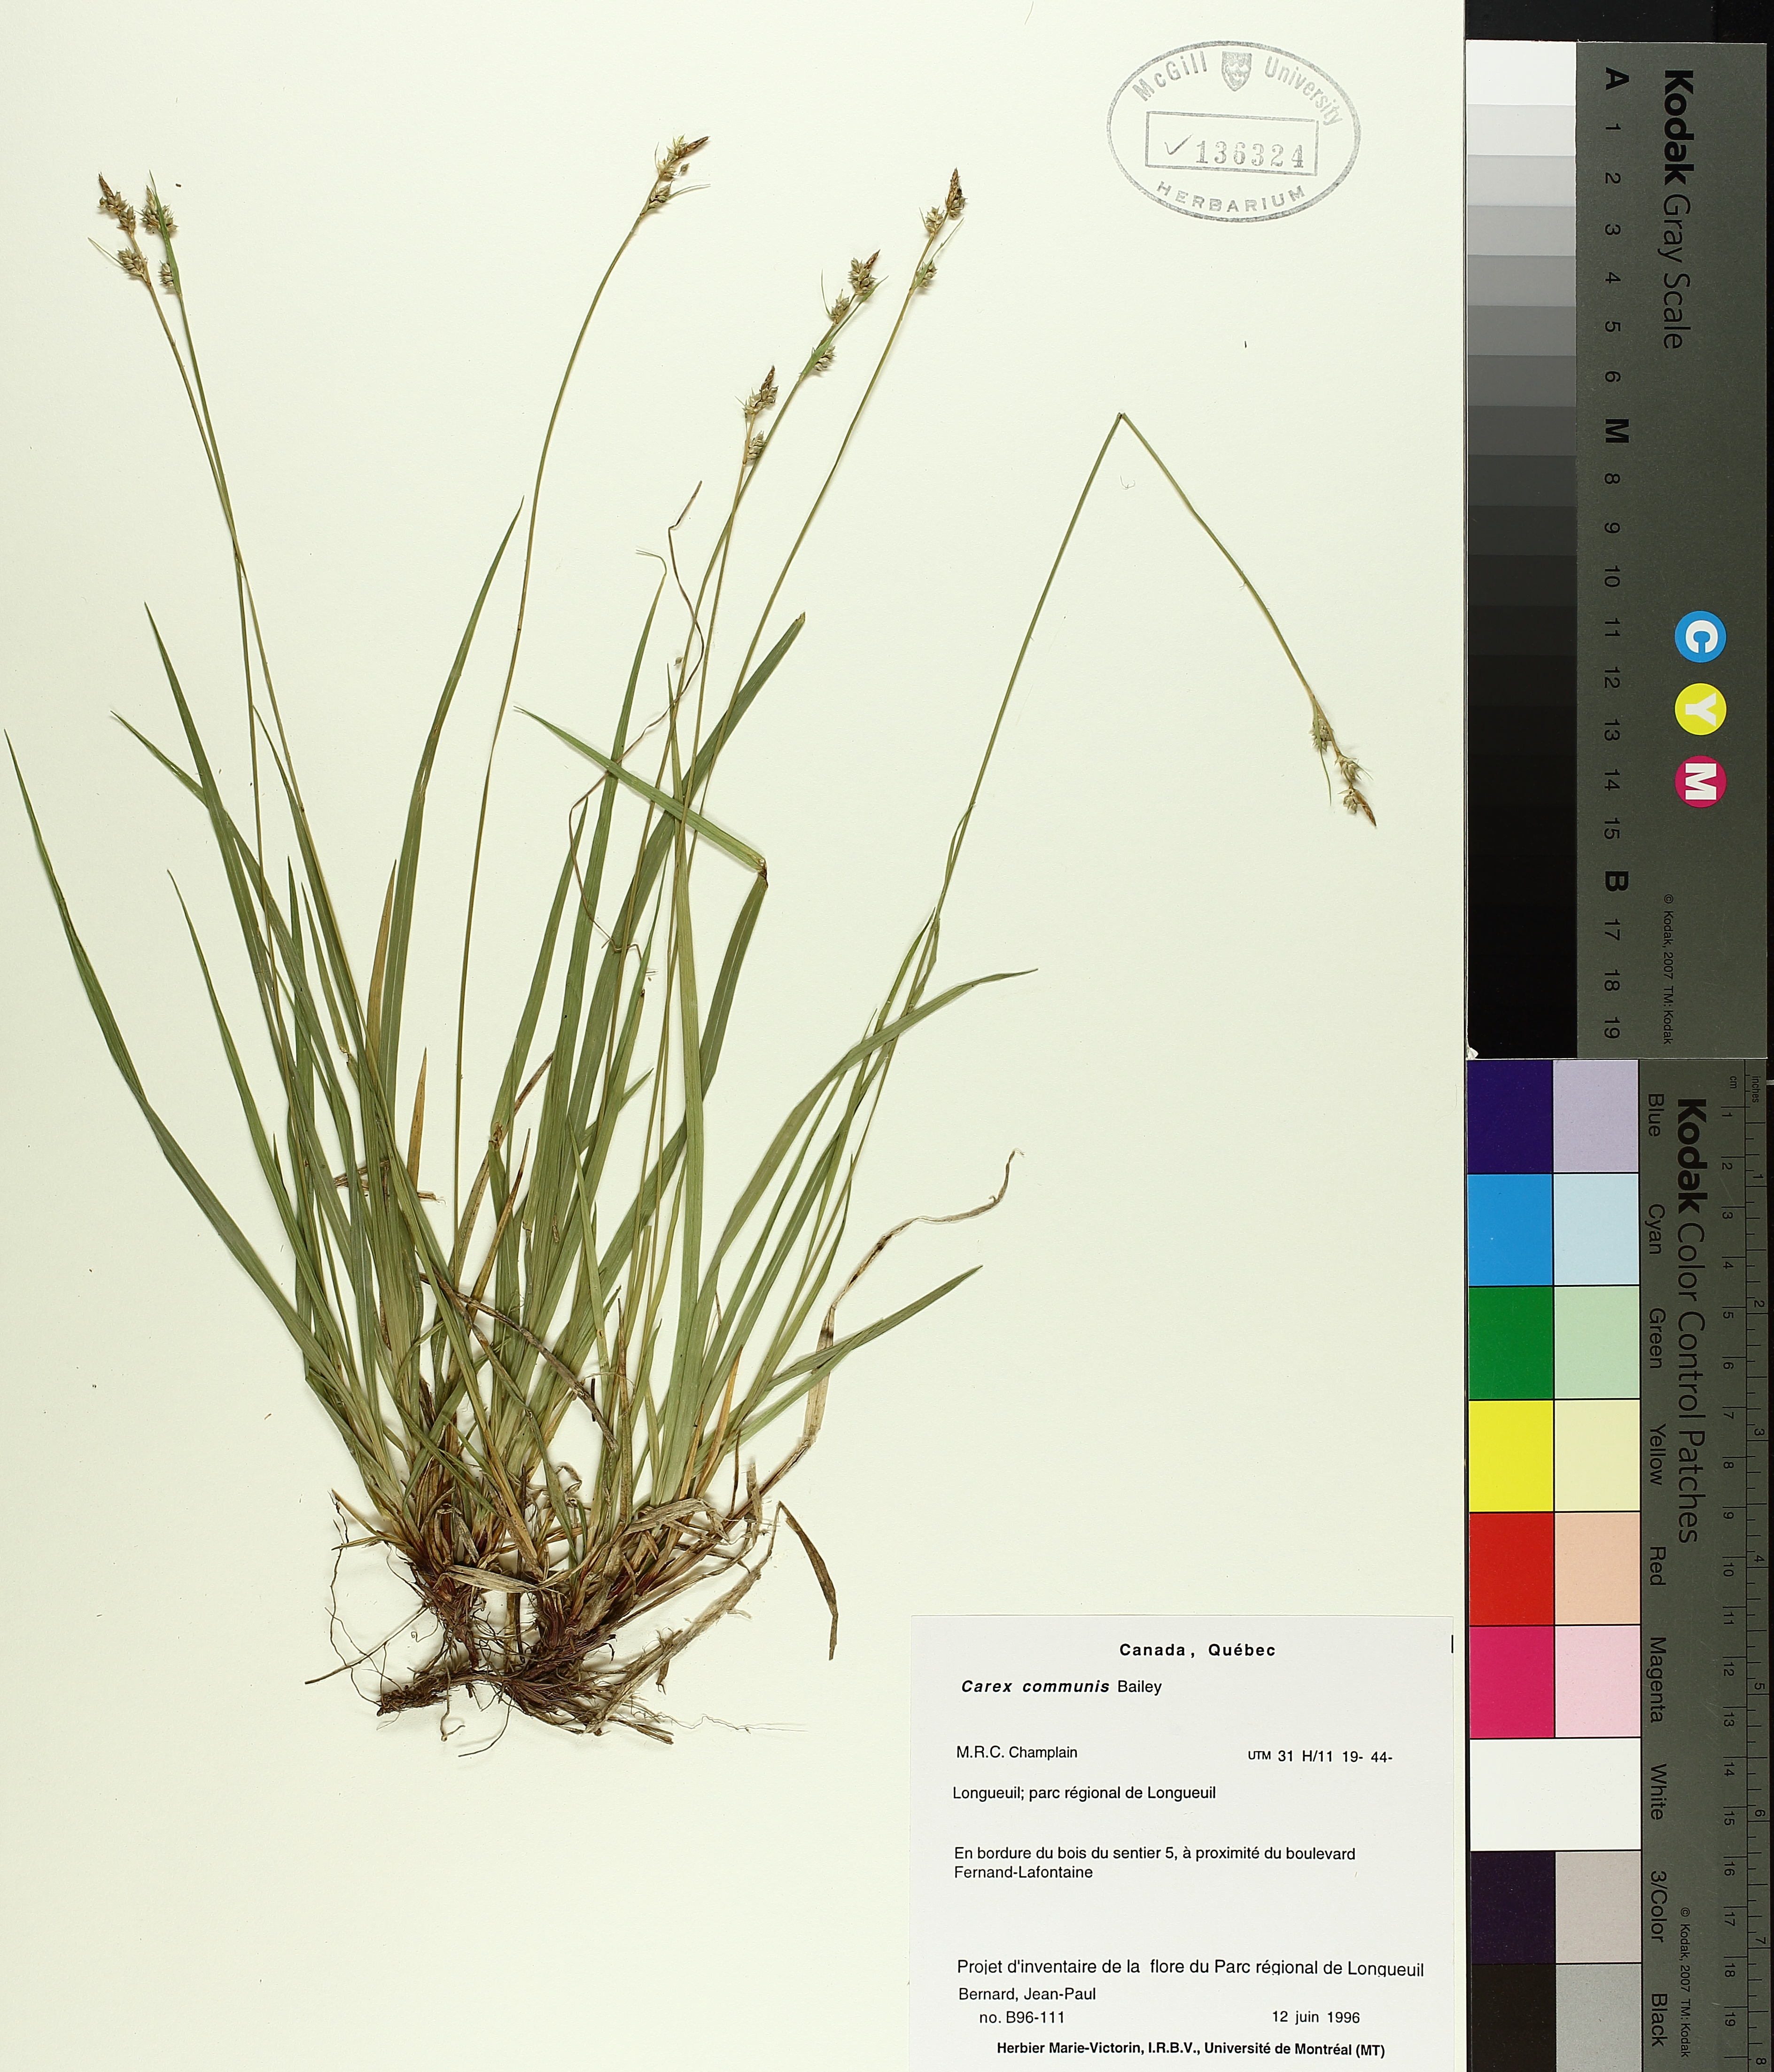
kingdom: Plantae
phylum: Tracheophyta
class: Liliopsida
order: Poales
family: Cyperaceae
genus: Carex
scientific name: Carex communis
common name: Colonial oak sedge
